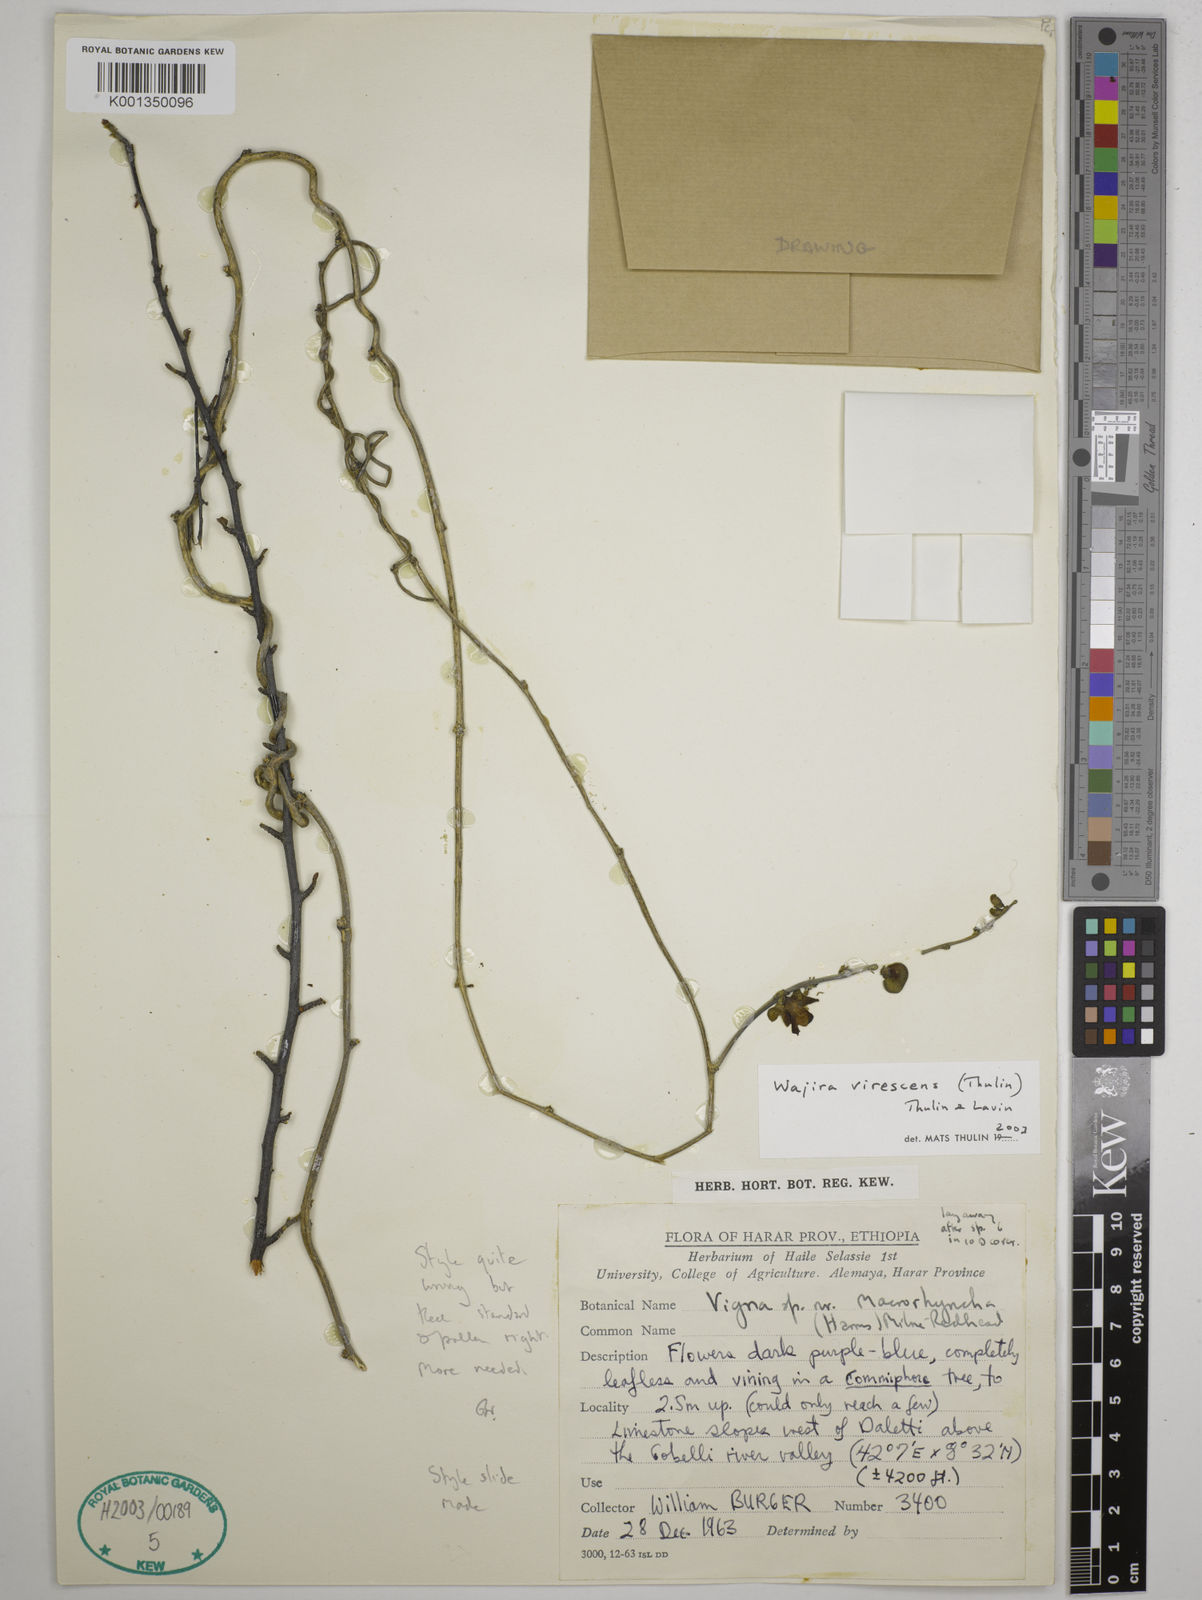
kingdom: Plantae
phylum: Tracheophyta
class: Magnoliopsida
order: Fabales
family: Fabaceae
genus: Wajira
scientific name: Wajira virescens
